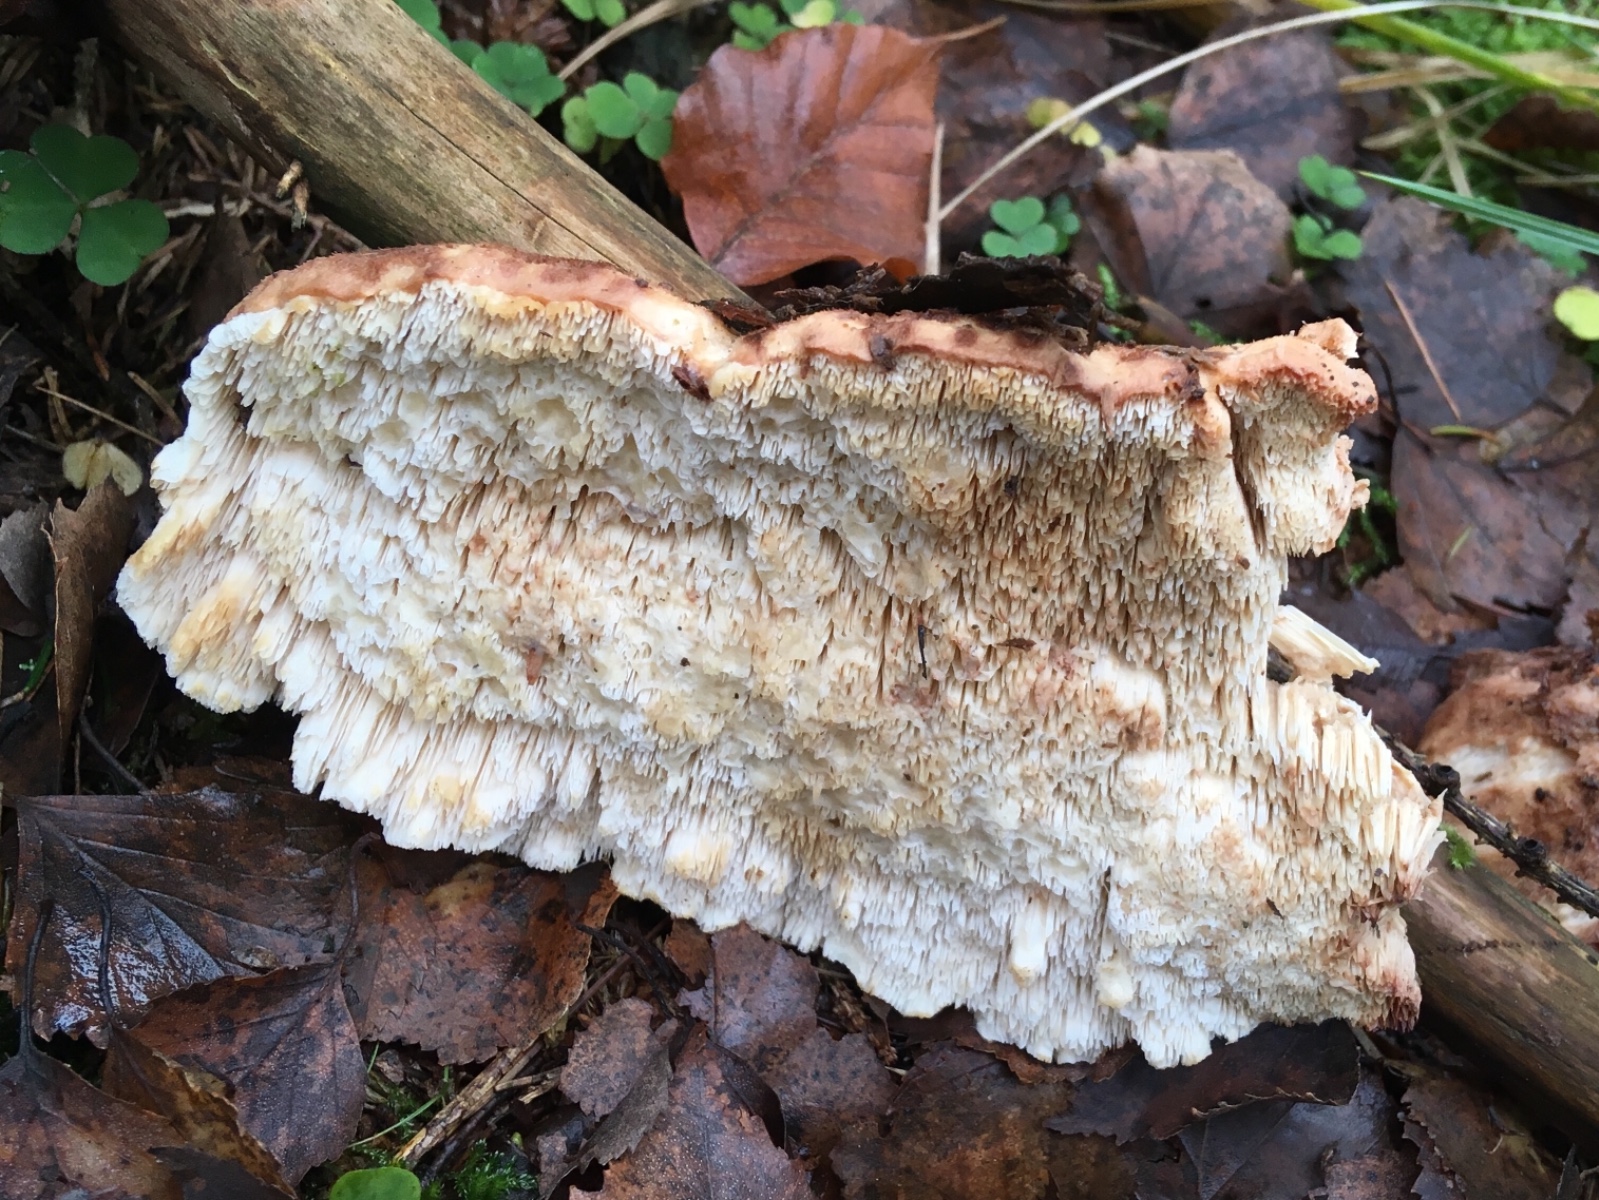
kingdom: Fungi
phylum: Basidiomycota
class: Agaricomycetes
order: Polyporales
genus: Fuscopostia
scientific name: Fuscopostia fragilis
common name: brunende kødporesvamp
